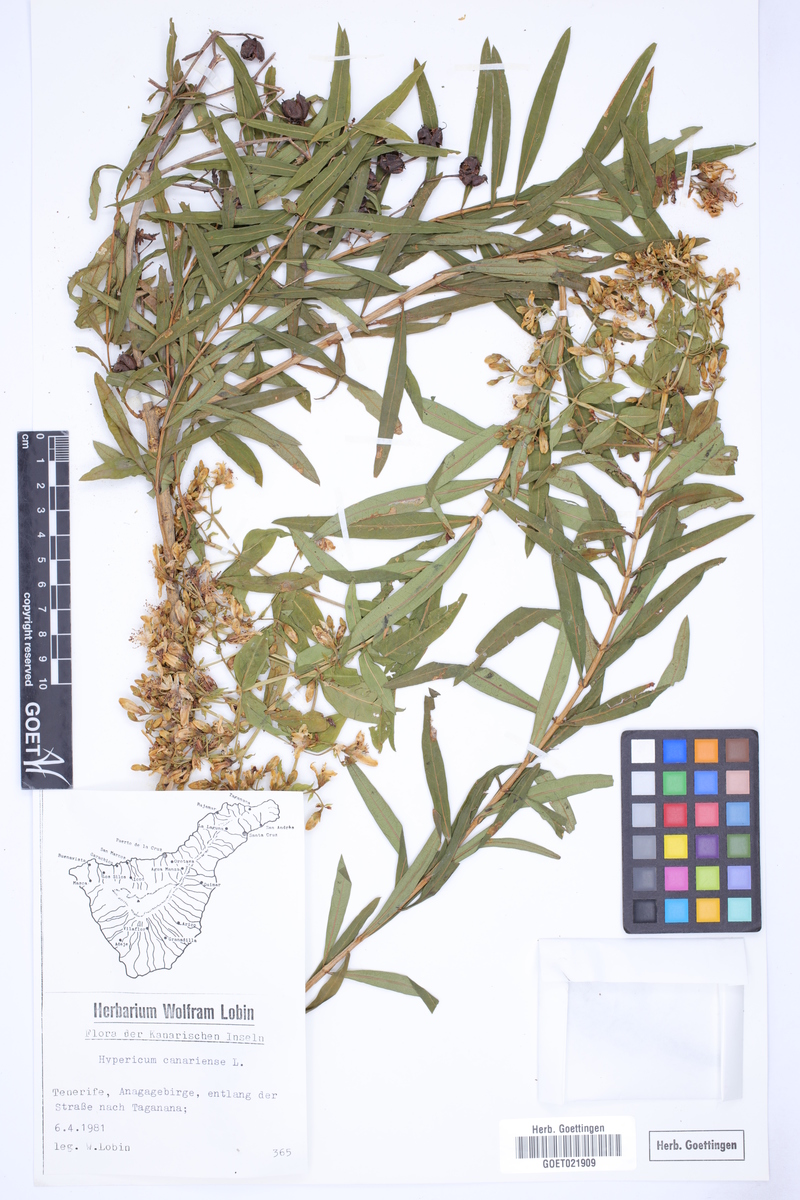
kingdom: Plantae
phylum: Tracheophyta
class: Magnoliopsida
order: Malpighiales
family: Hypericaceae
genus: Hypericum
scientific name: Hypericum canariense
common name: Canary island st. johnswort
